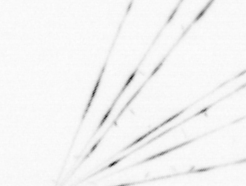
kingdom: Chromista
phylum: Ochrophyta
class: Bacillariophyceae
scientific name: Bacillariophyceae
